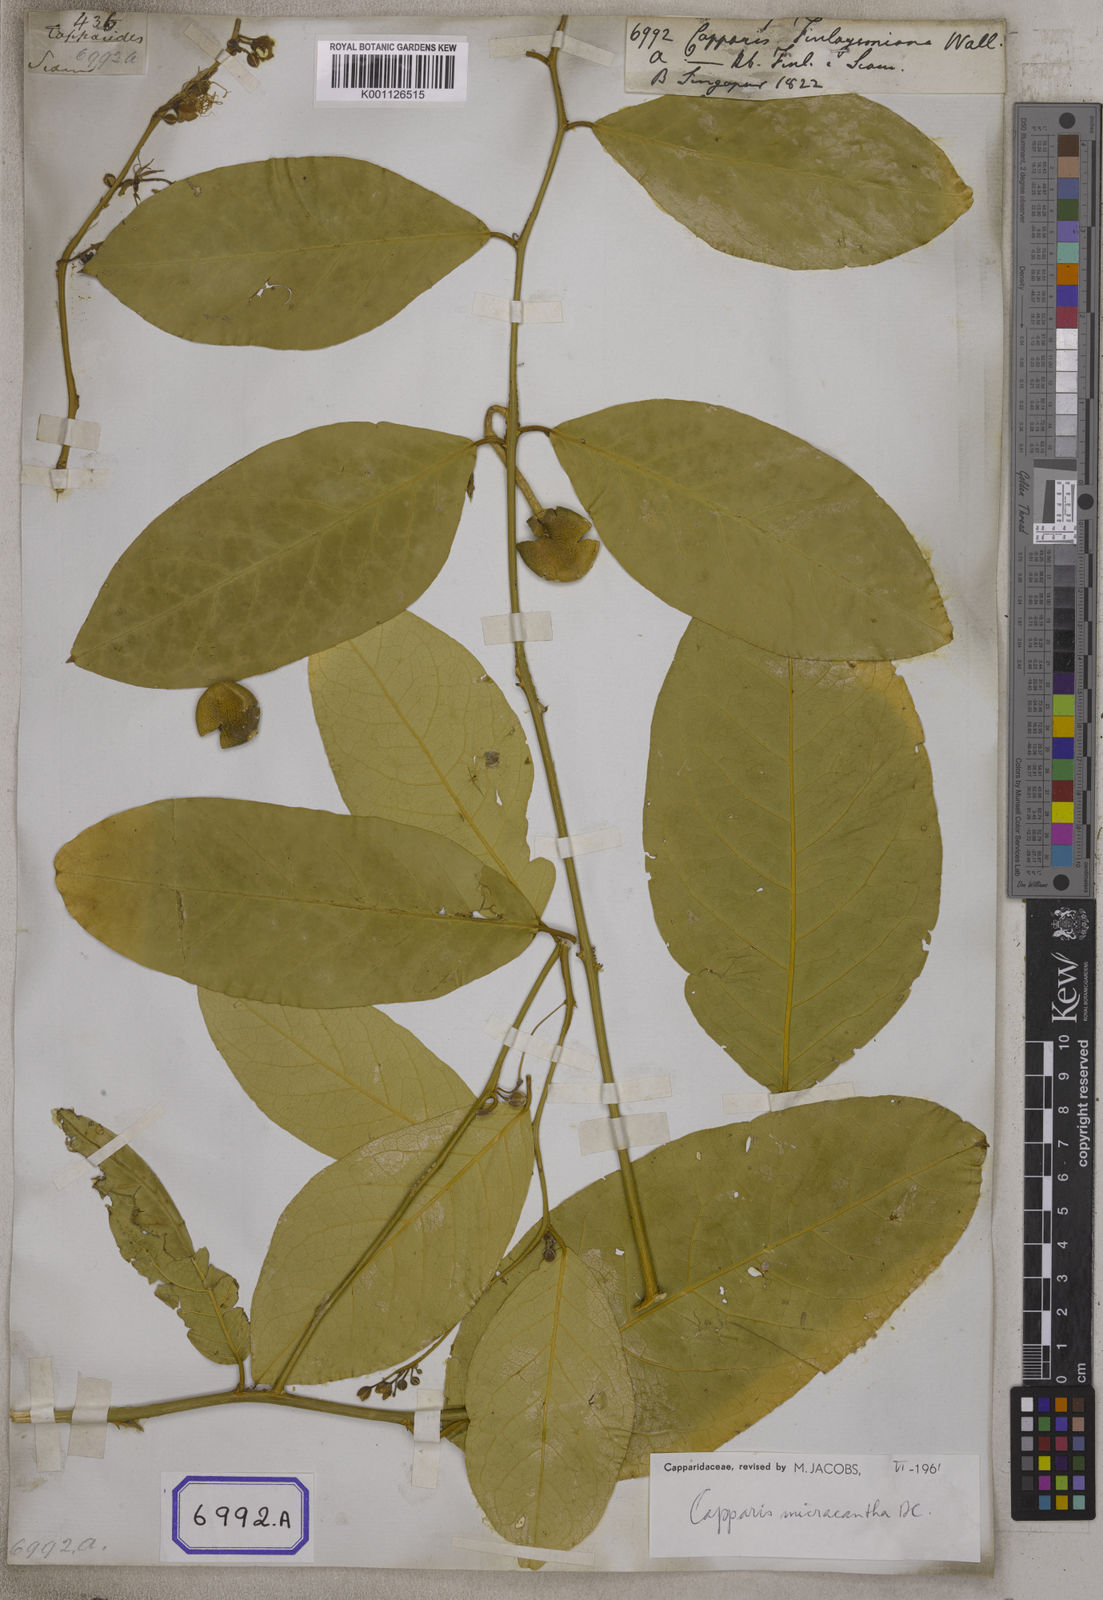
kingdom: Plantae
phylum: Tracheophyta
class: Magnoliopsida
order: Brassicales
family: Capparaceae
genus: Capparis
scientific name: Capparis
